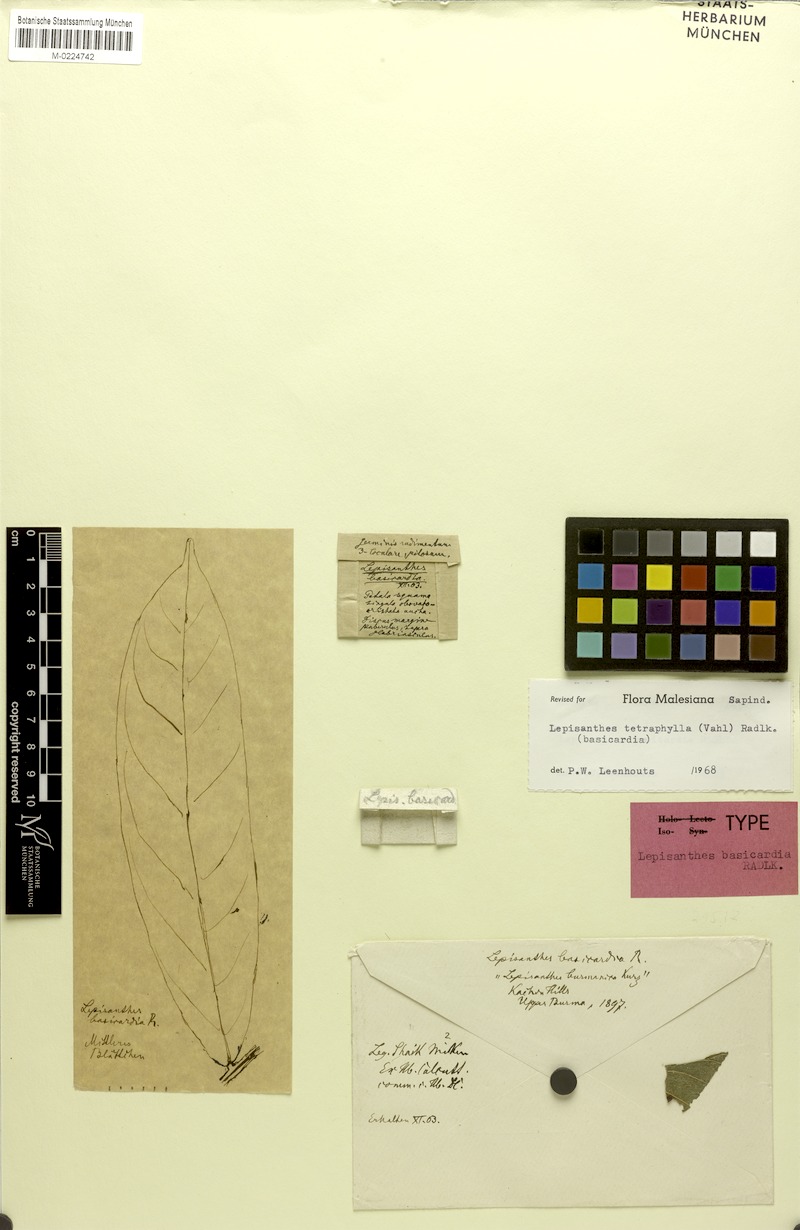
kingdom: Plantae
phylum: Tracheophyta
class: Magnoliopsida
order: Sapindales
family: Sapindaceae
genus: Lepisanthes
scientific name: Lepisanthes tetraphylla
